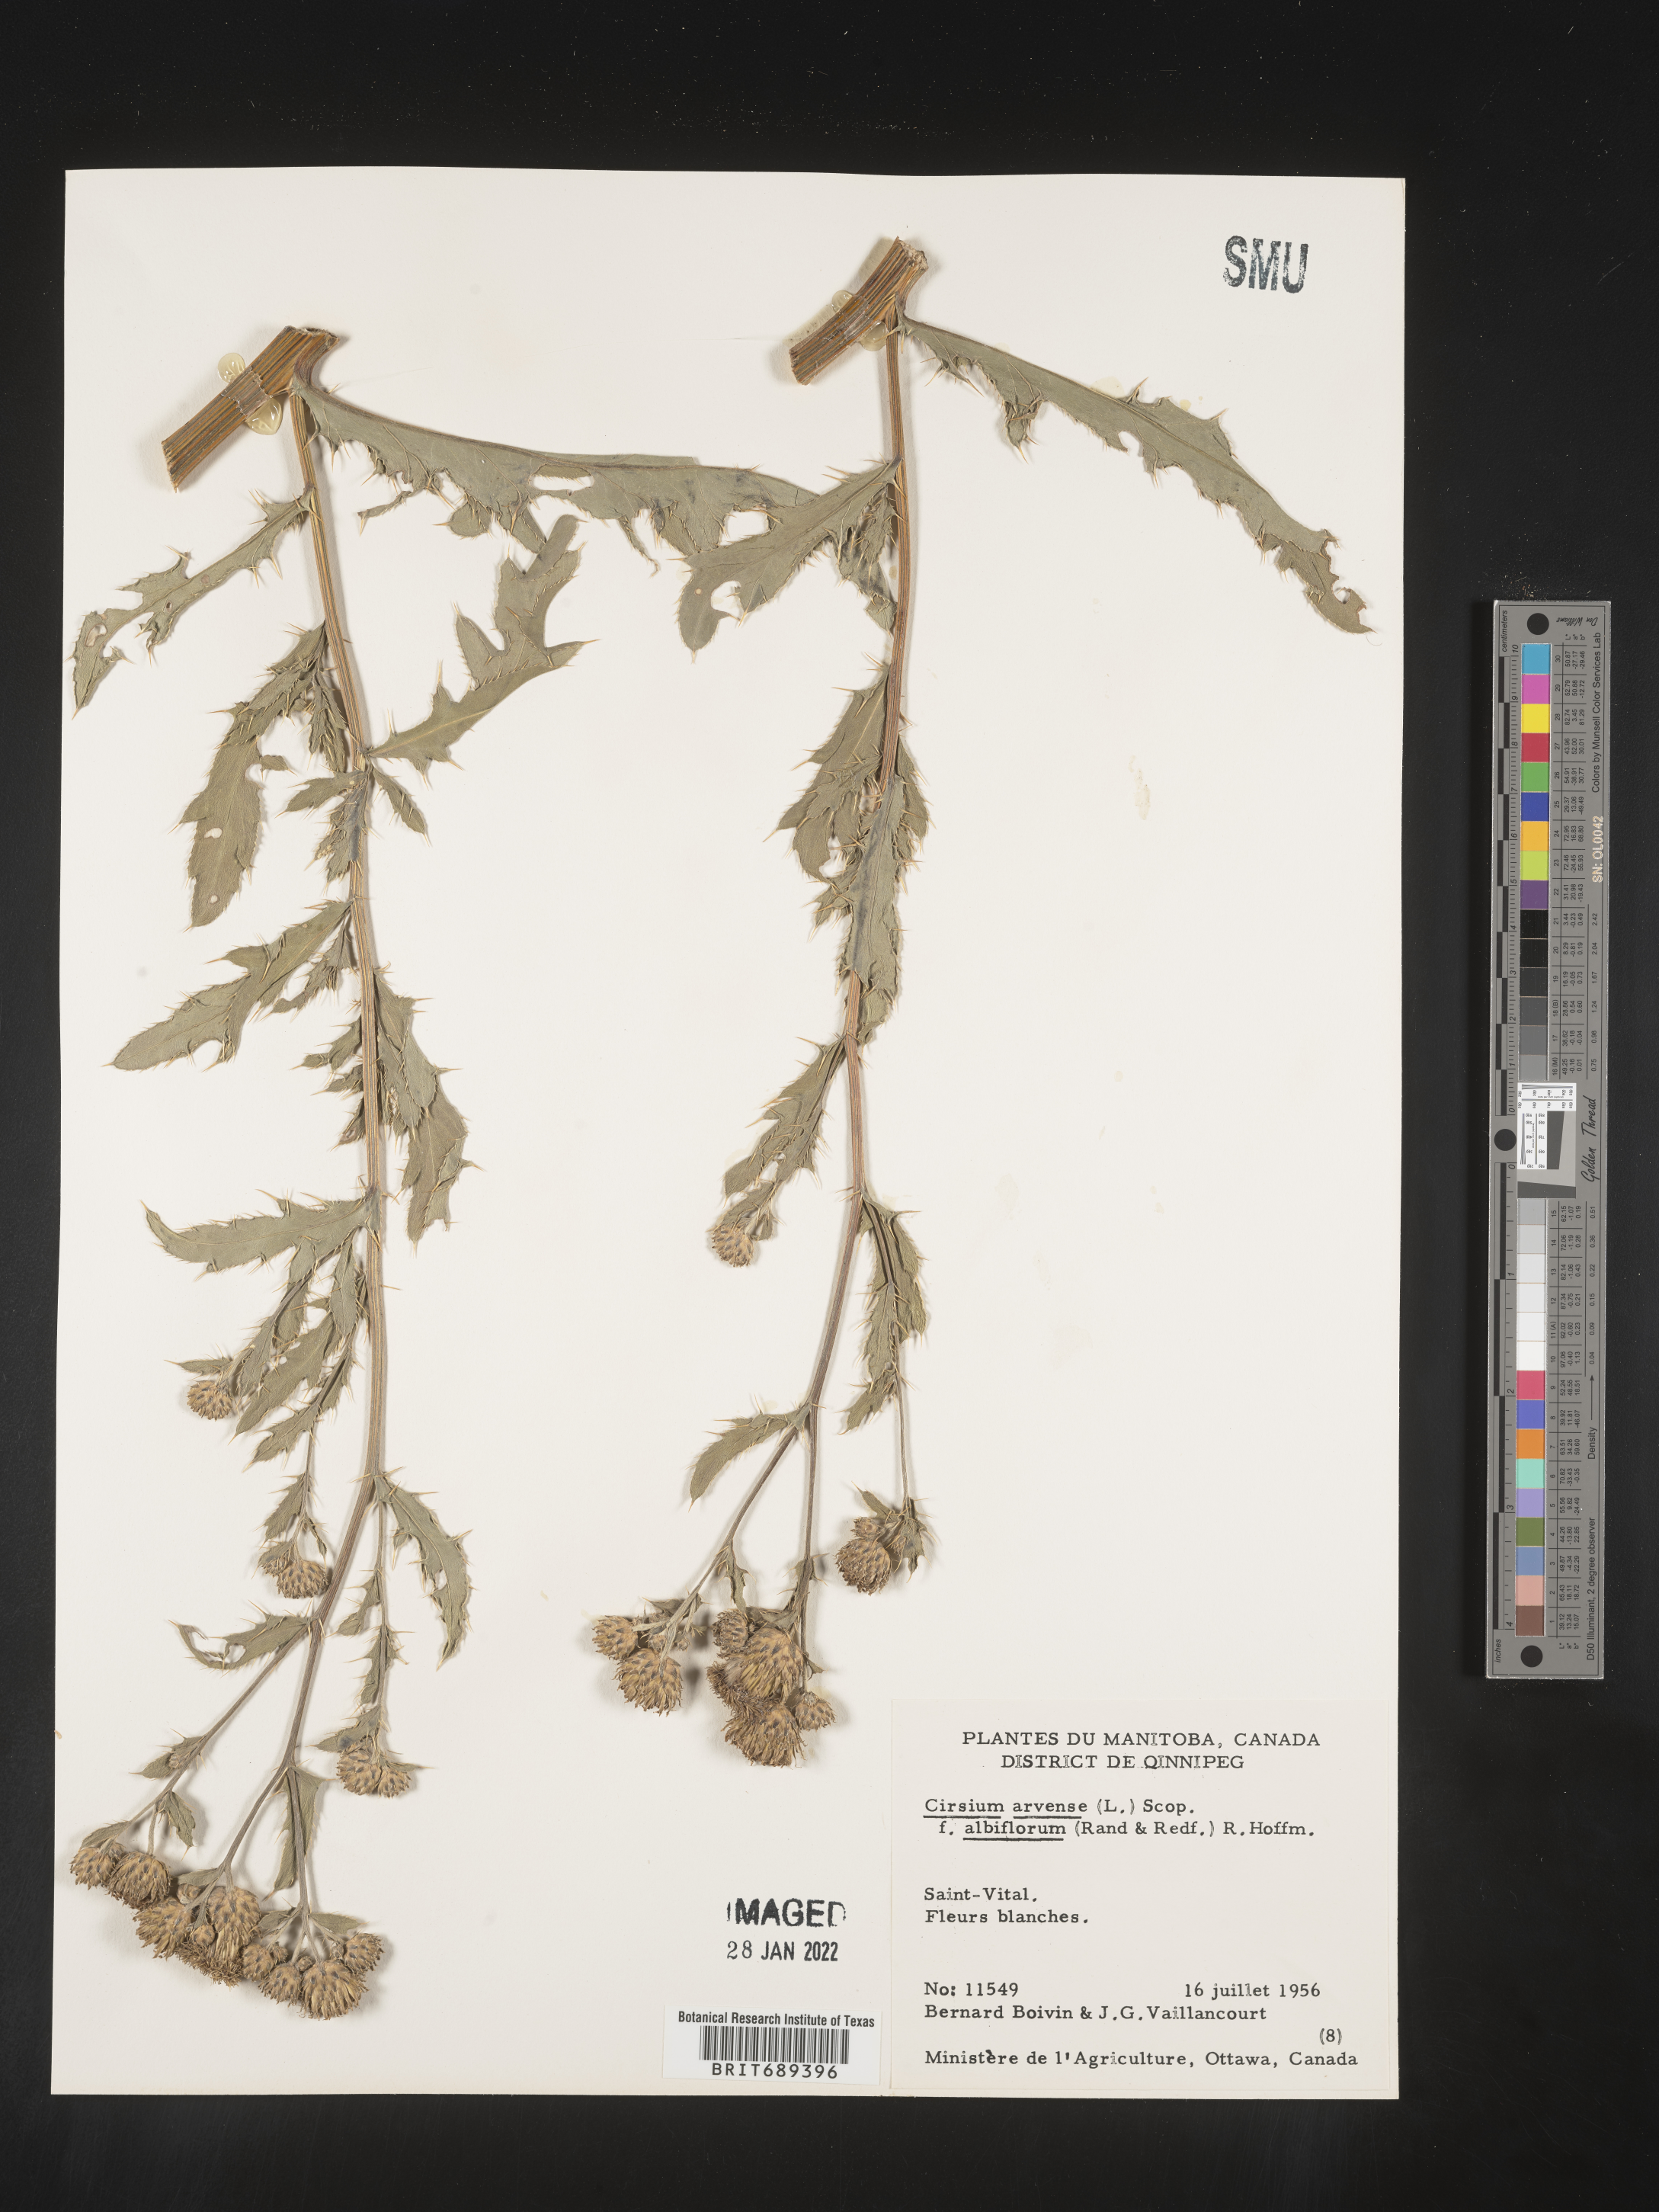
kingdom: Plantae
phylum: Tracheophyta
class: Magnoliopsida
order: Asterales
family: Asteraceae
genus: Cirsium
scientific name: Cirsium arvense
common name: Creeping thistle
